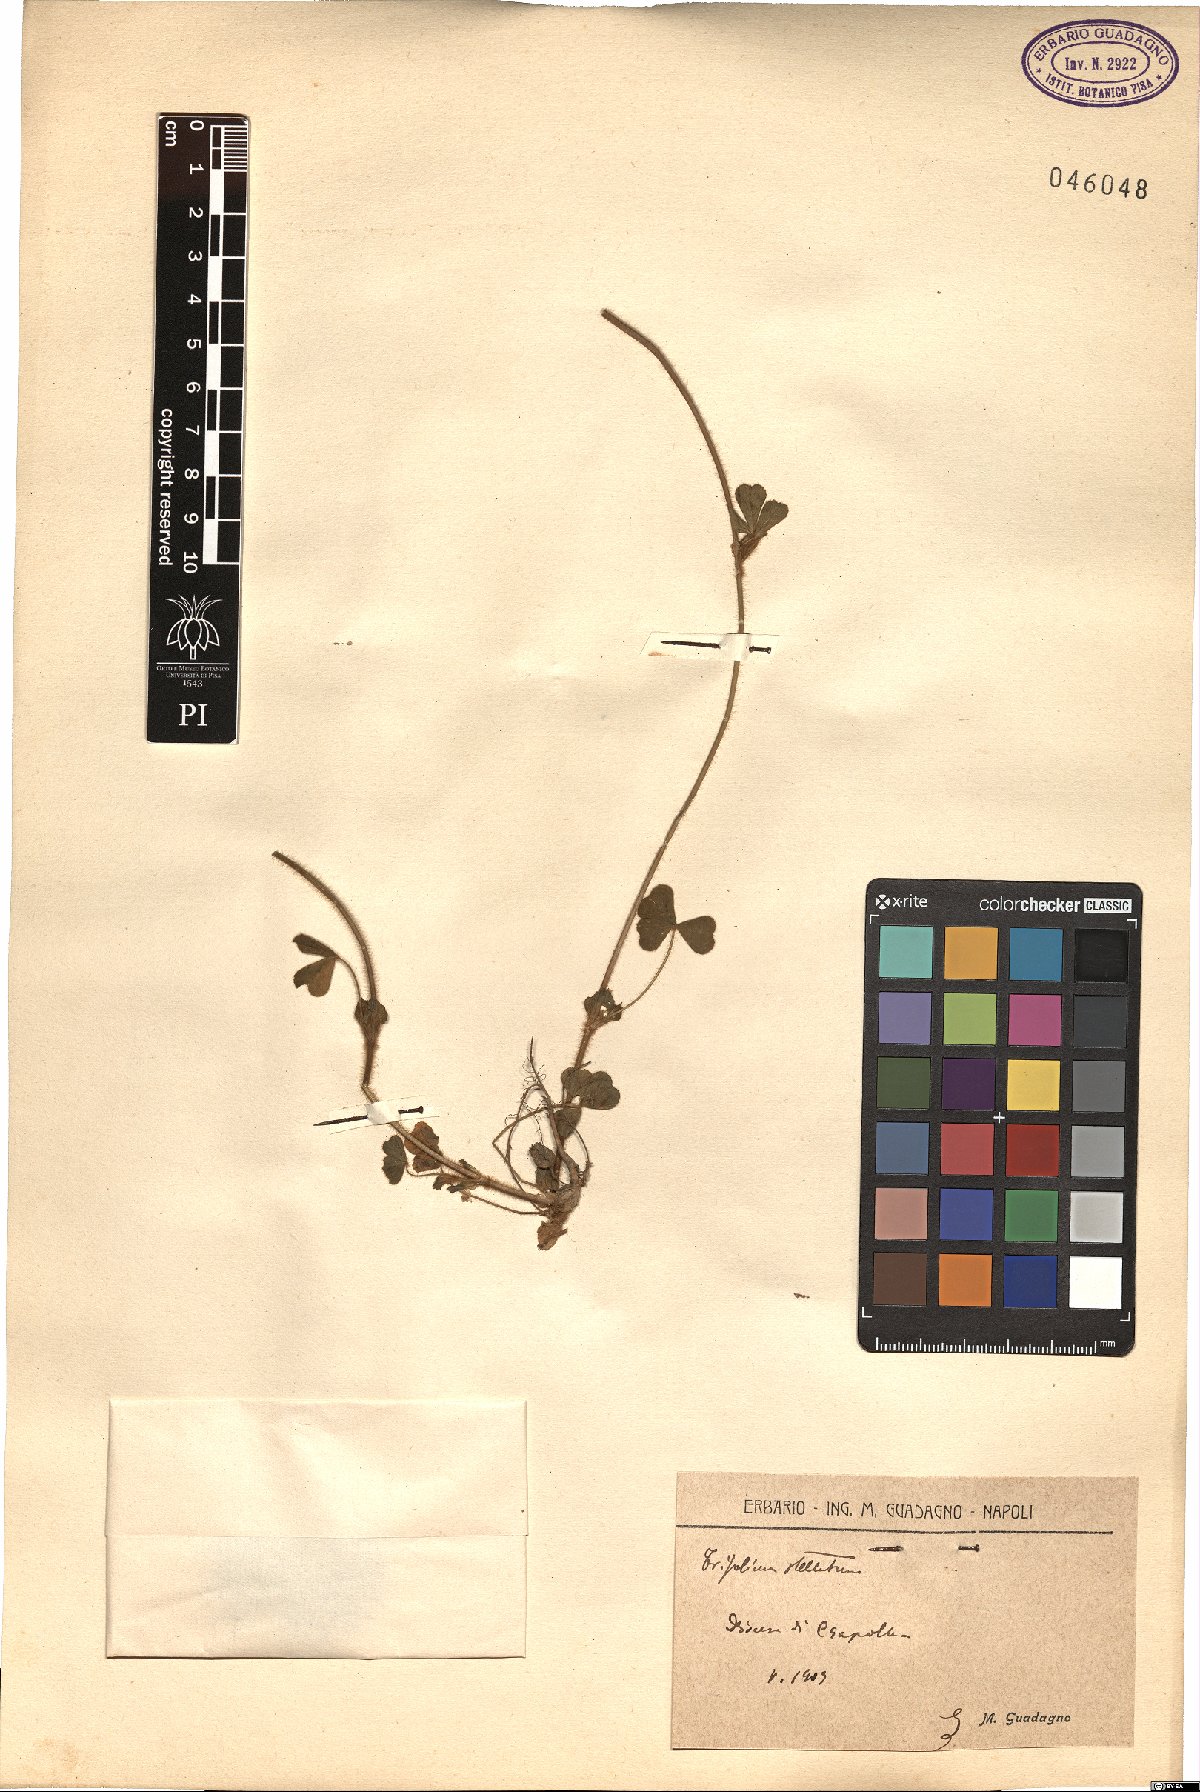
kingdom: Plantae
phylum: Tracheophyta
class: Magnoliopsida
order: Fabales
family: Fabaceae
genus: Trifolium
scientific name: Trifolium stellatum
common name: Starry clover
